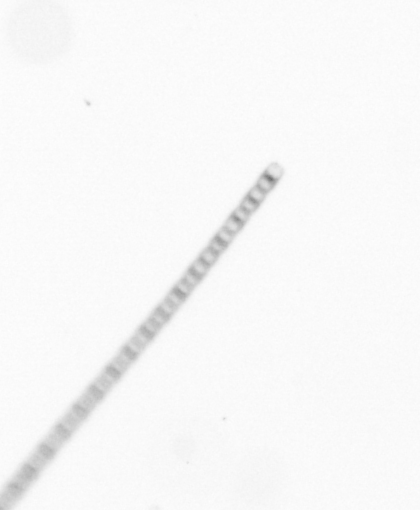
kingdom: Chromista
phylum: Ochrophyta
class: Bacillariophyceae
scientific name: Bacillariophyceae
